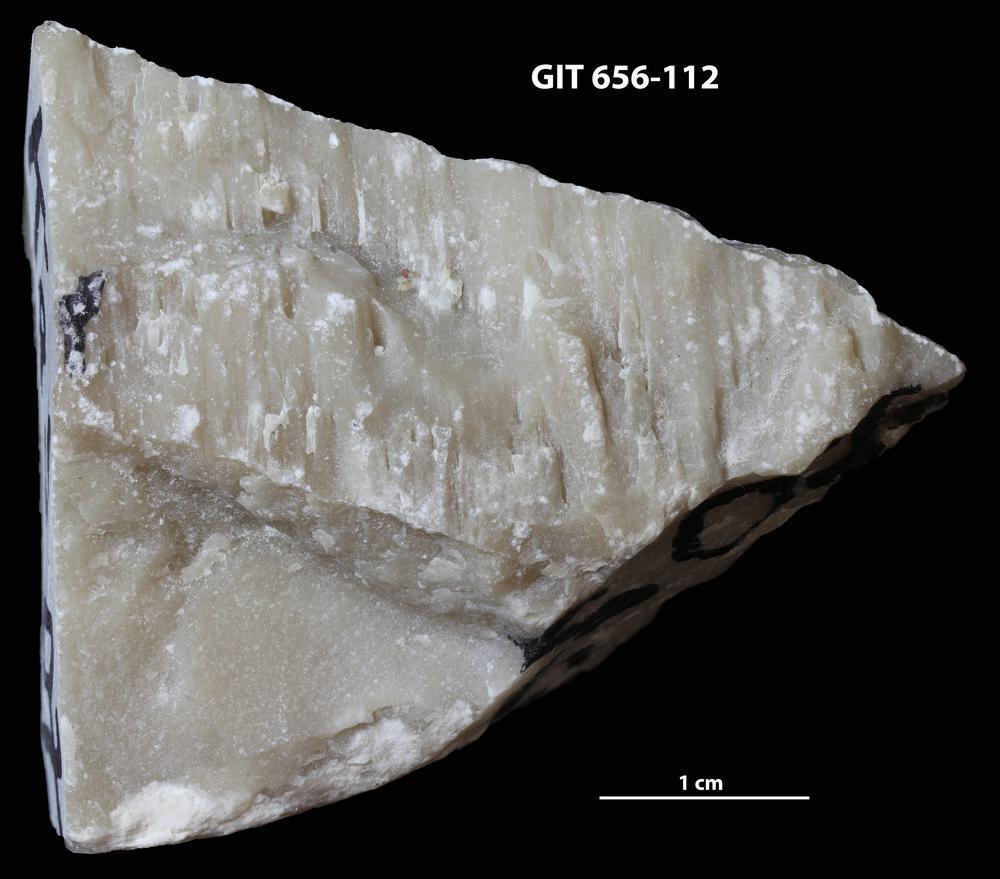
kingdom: Animalia
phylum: Porifera
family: Actinostromatidae
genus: Plectostroma
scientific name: Plectostroma
